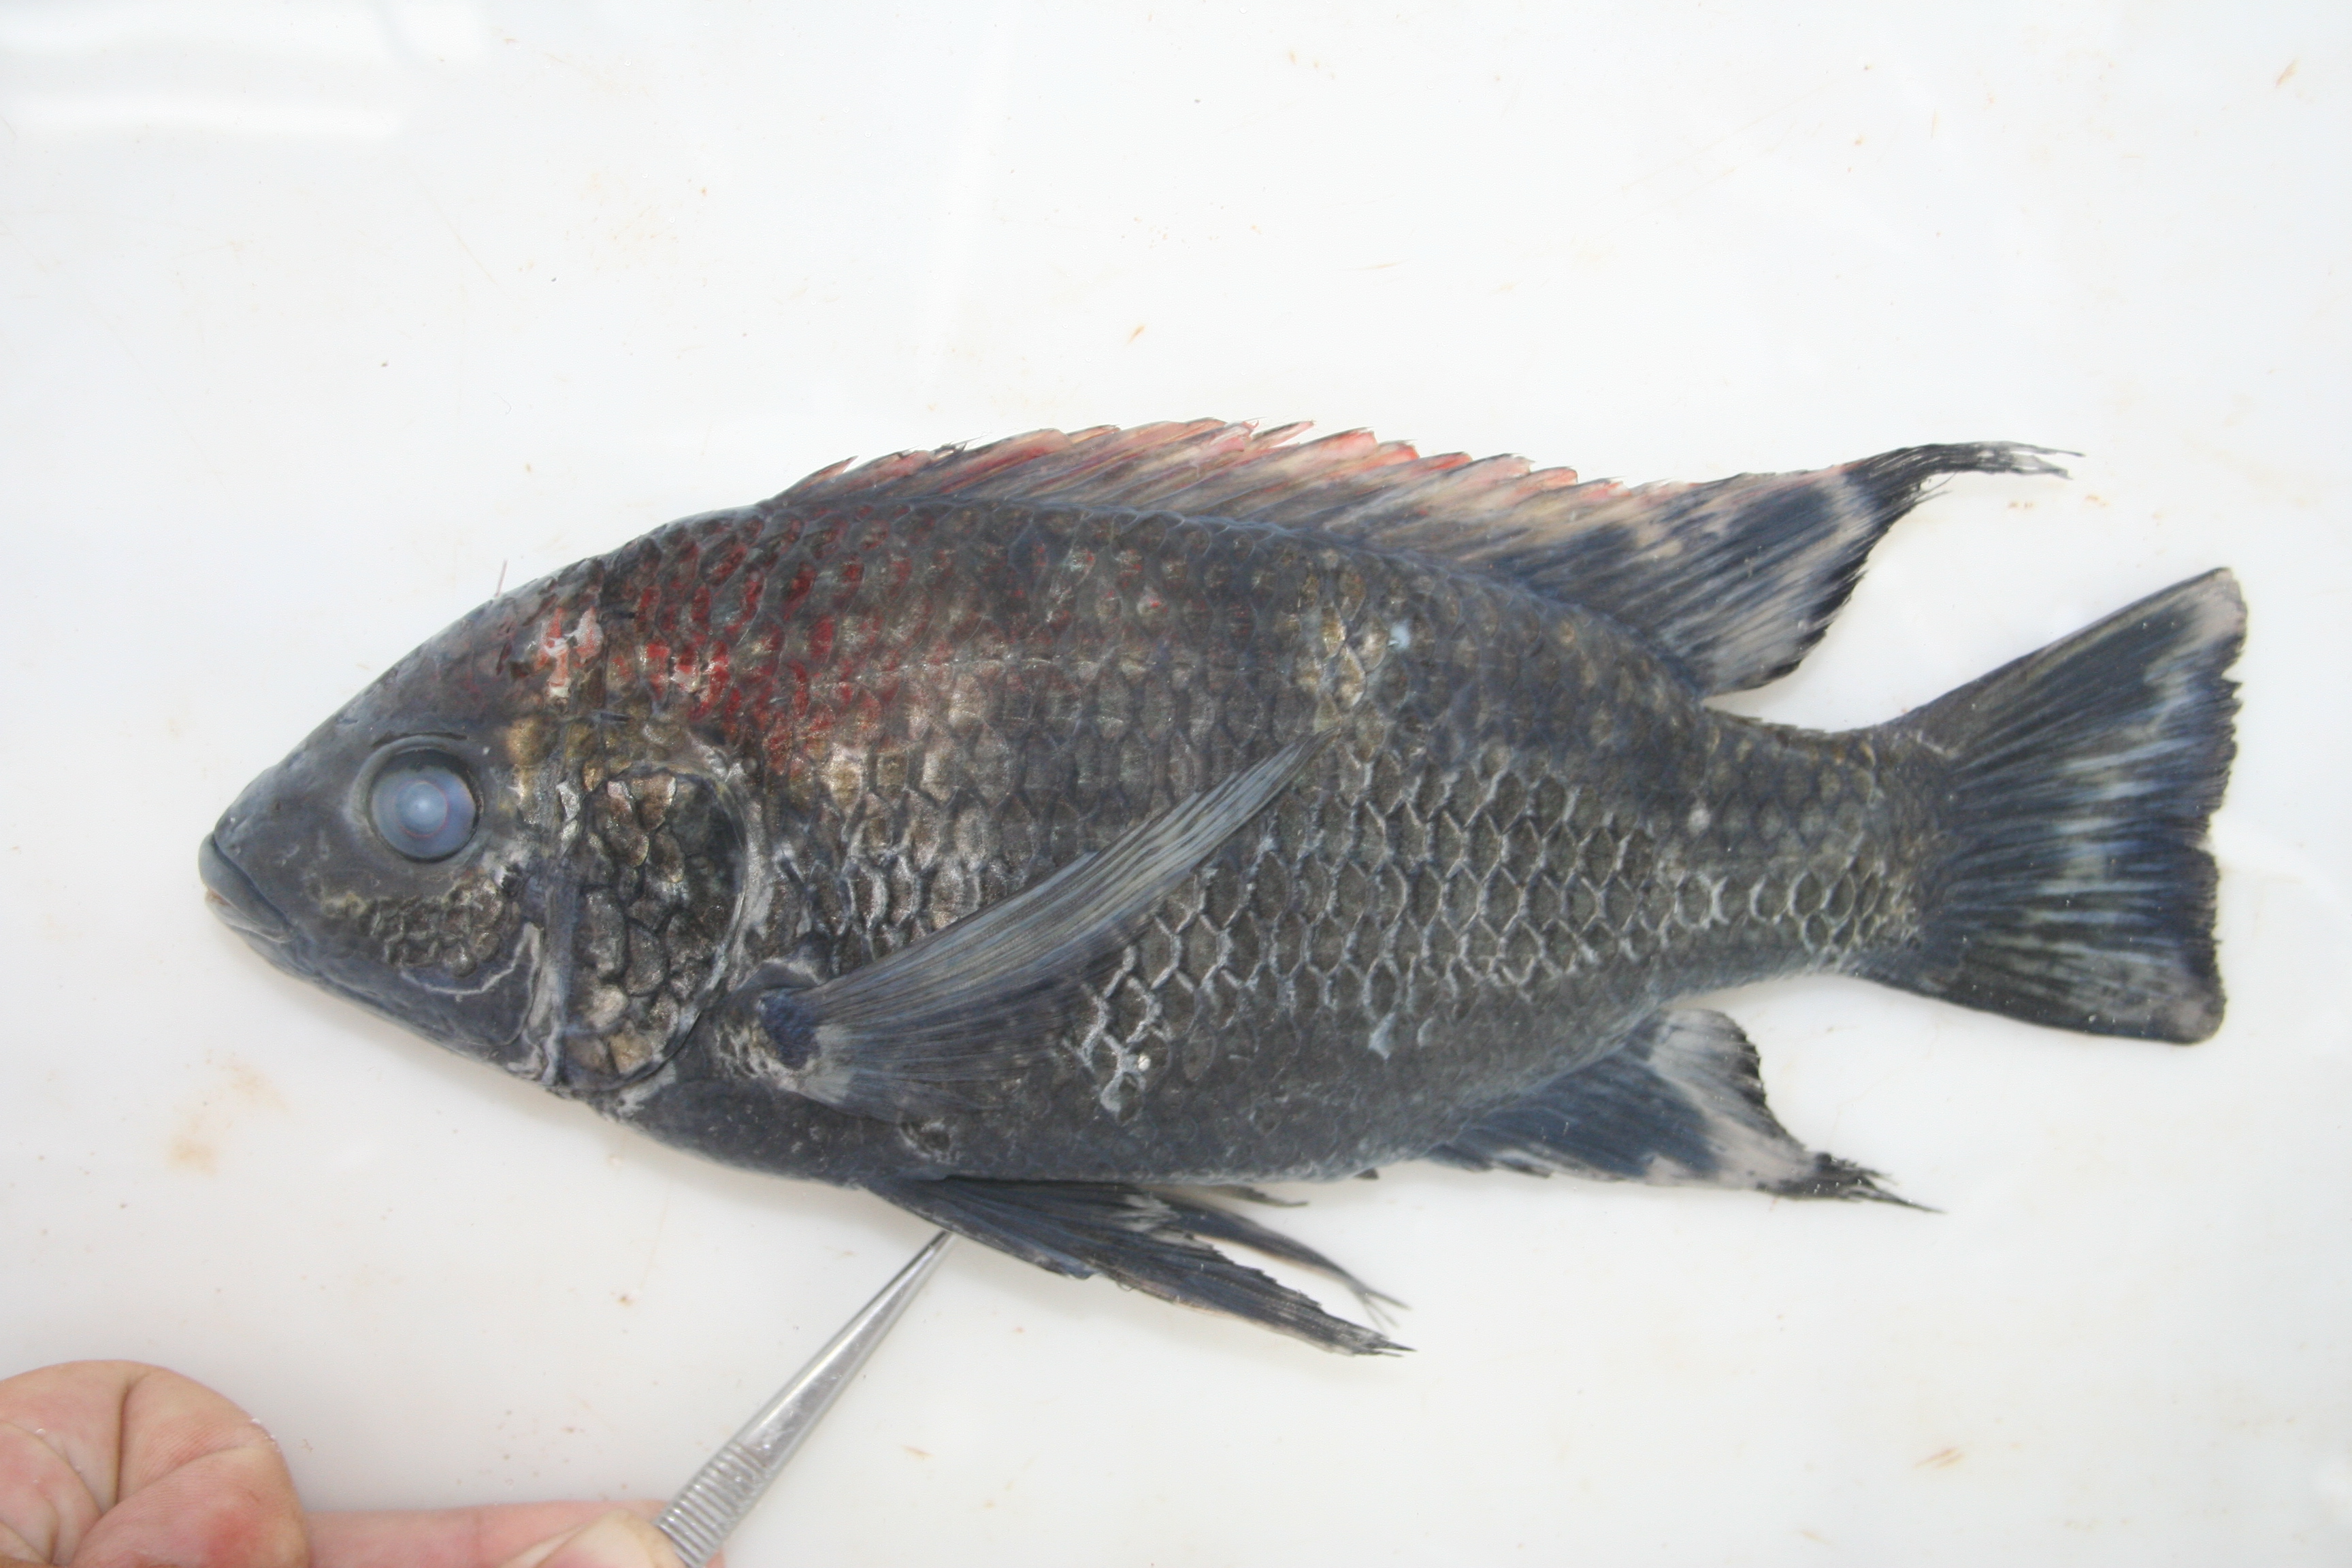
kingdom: Animalia
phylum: Chordata
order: Perciformes
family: Cichlidae
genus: Oreochromis
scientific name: Oreochromis placidus
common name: Black tilapia
